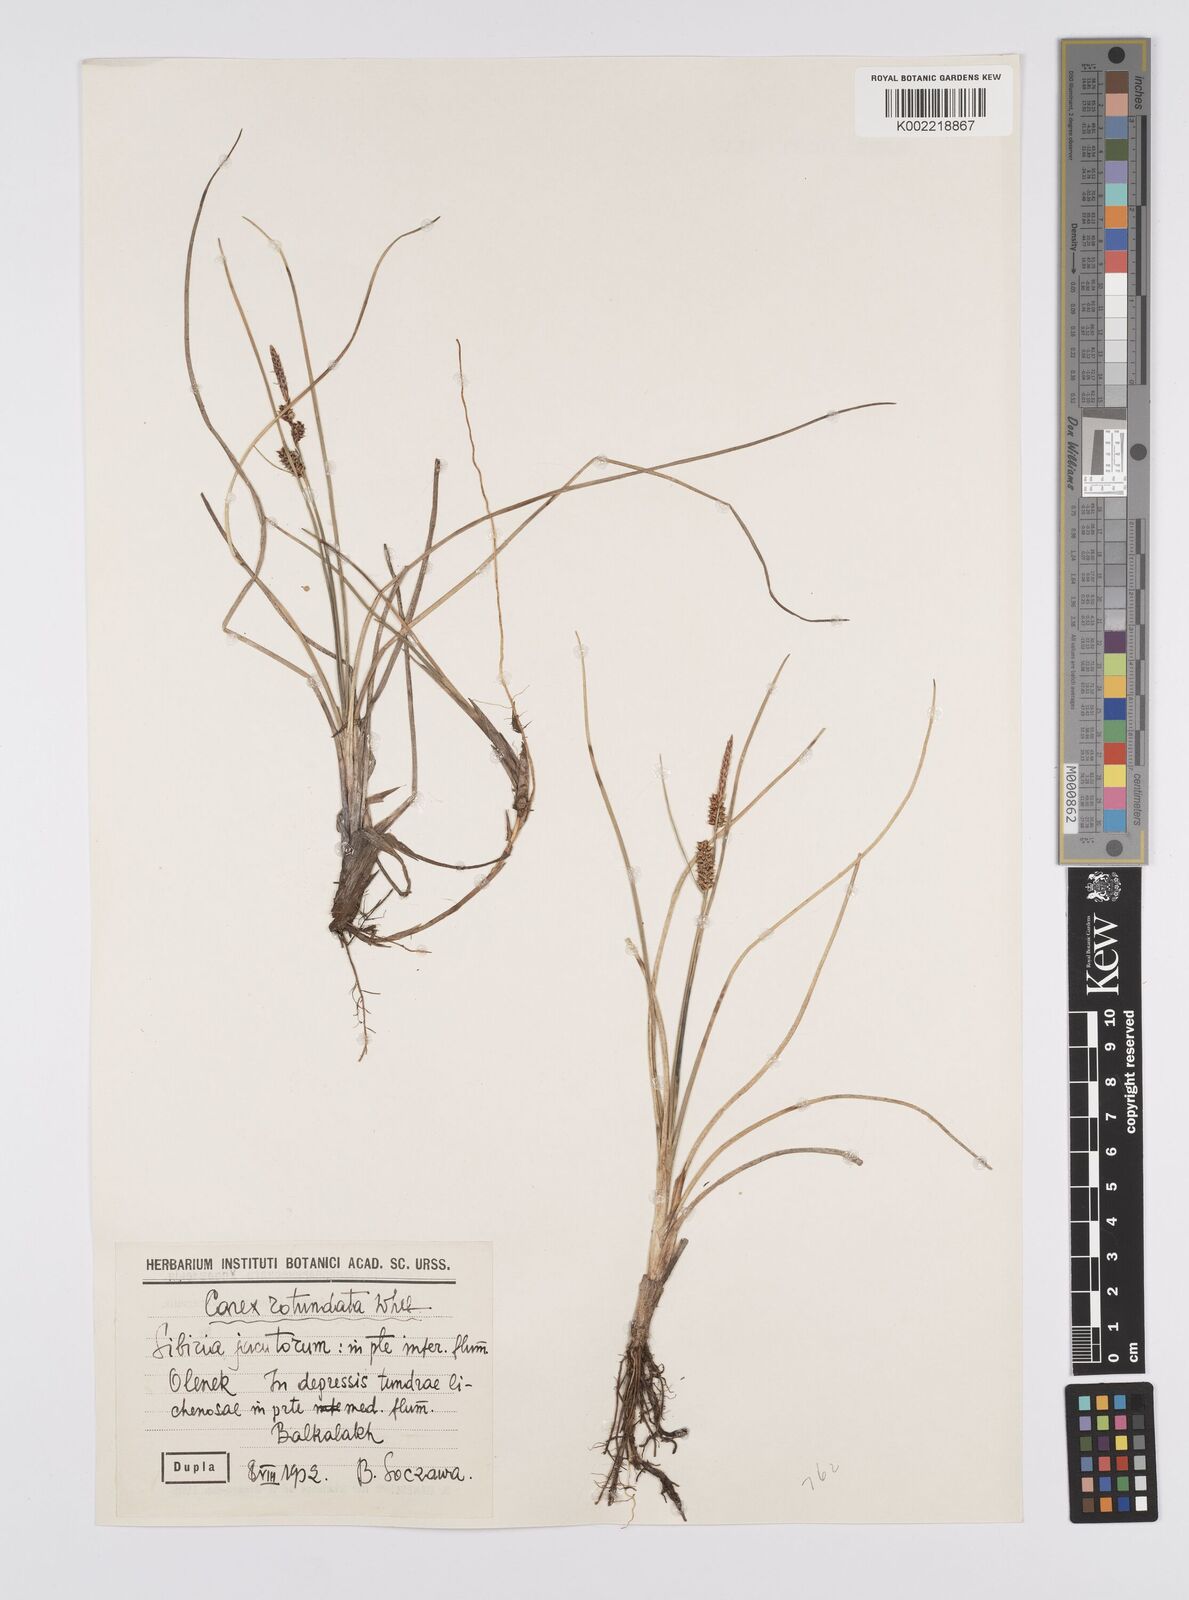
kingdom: Plantae
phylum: Tracheophyta
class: Liliopsida
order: Poales
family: Cyperaceae
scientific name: Cyperaceae
